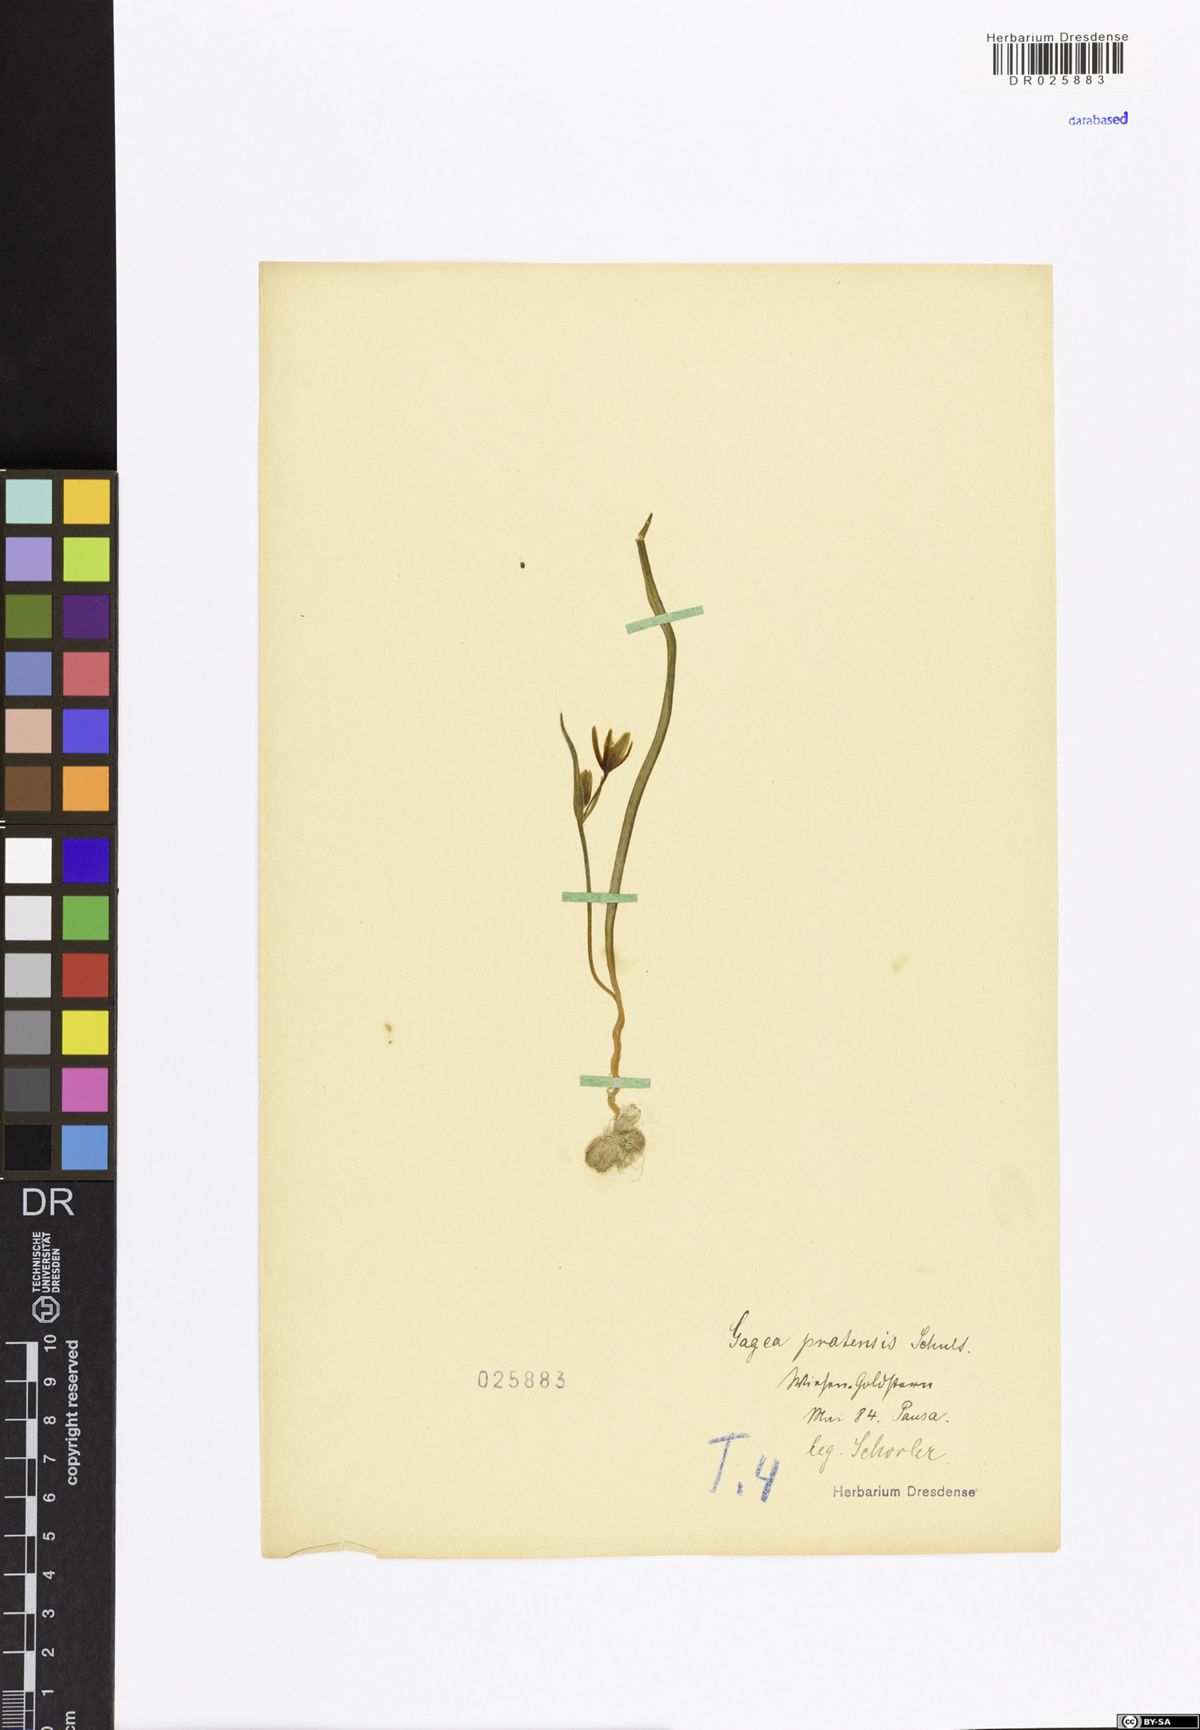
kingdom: Plantae
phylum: Tracheophyta
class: Liliopsida
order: Liliales
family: Liliaceae
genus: Gagea
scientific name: Gagea pratensis
